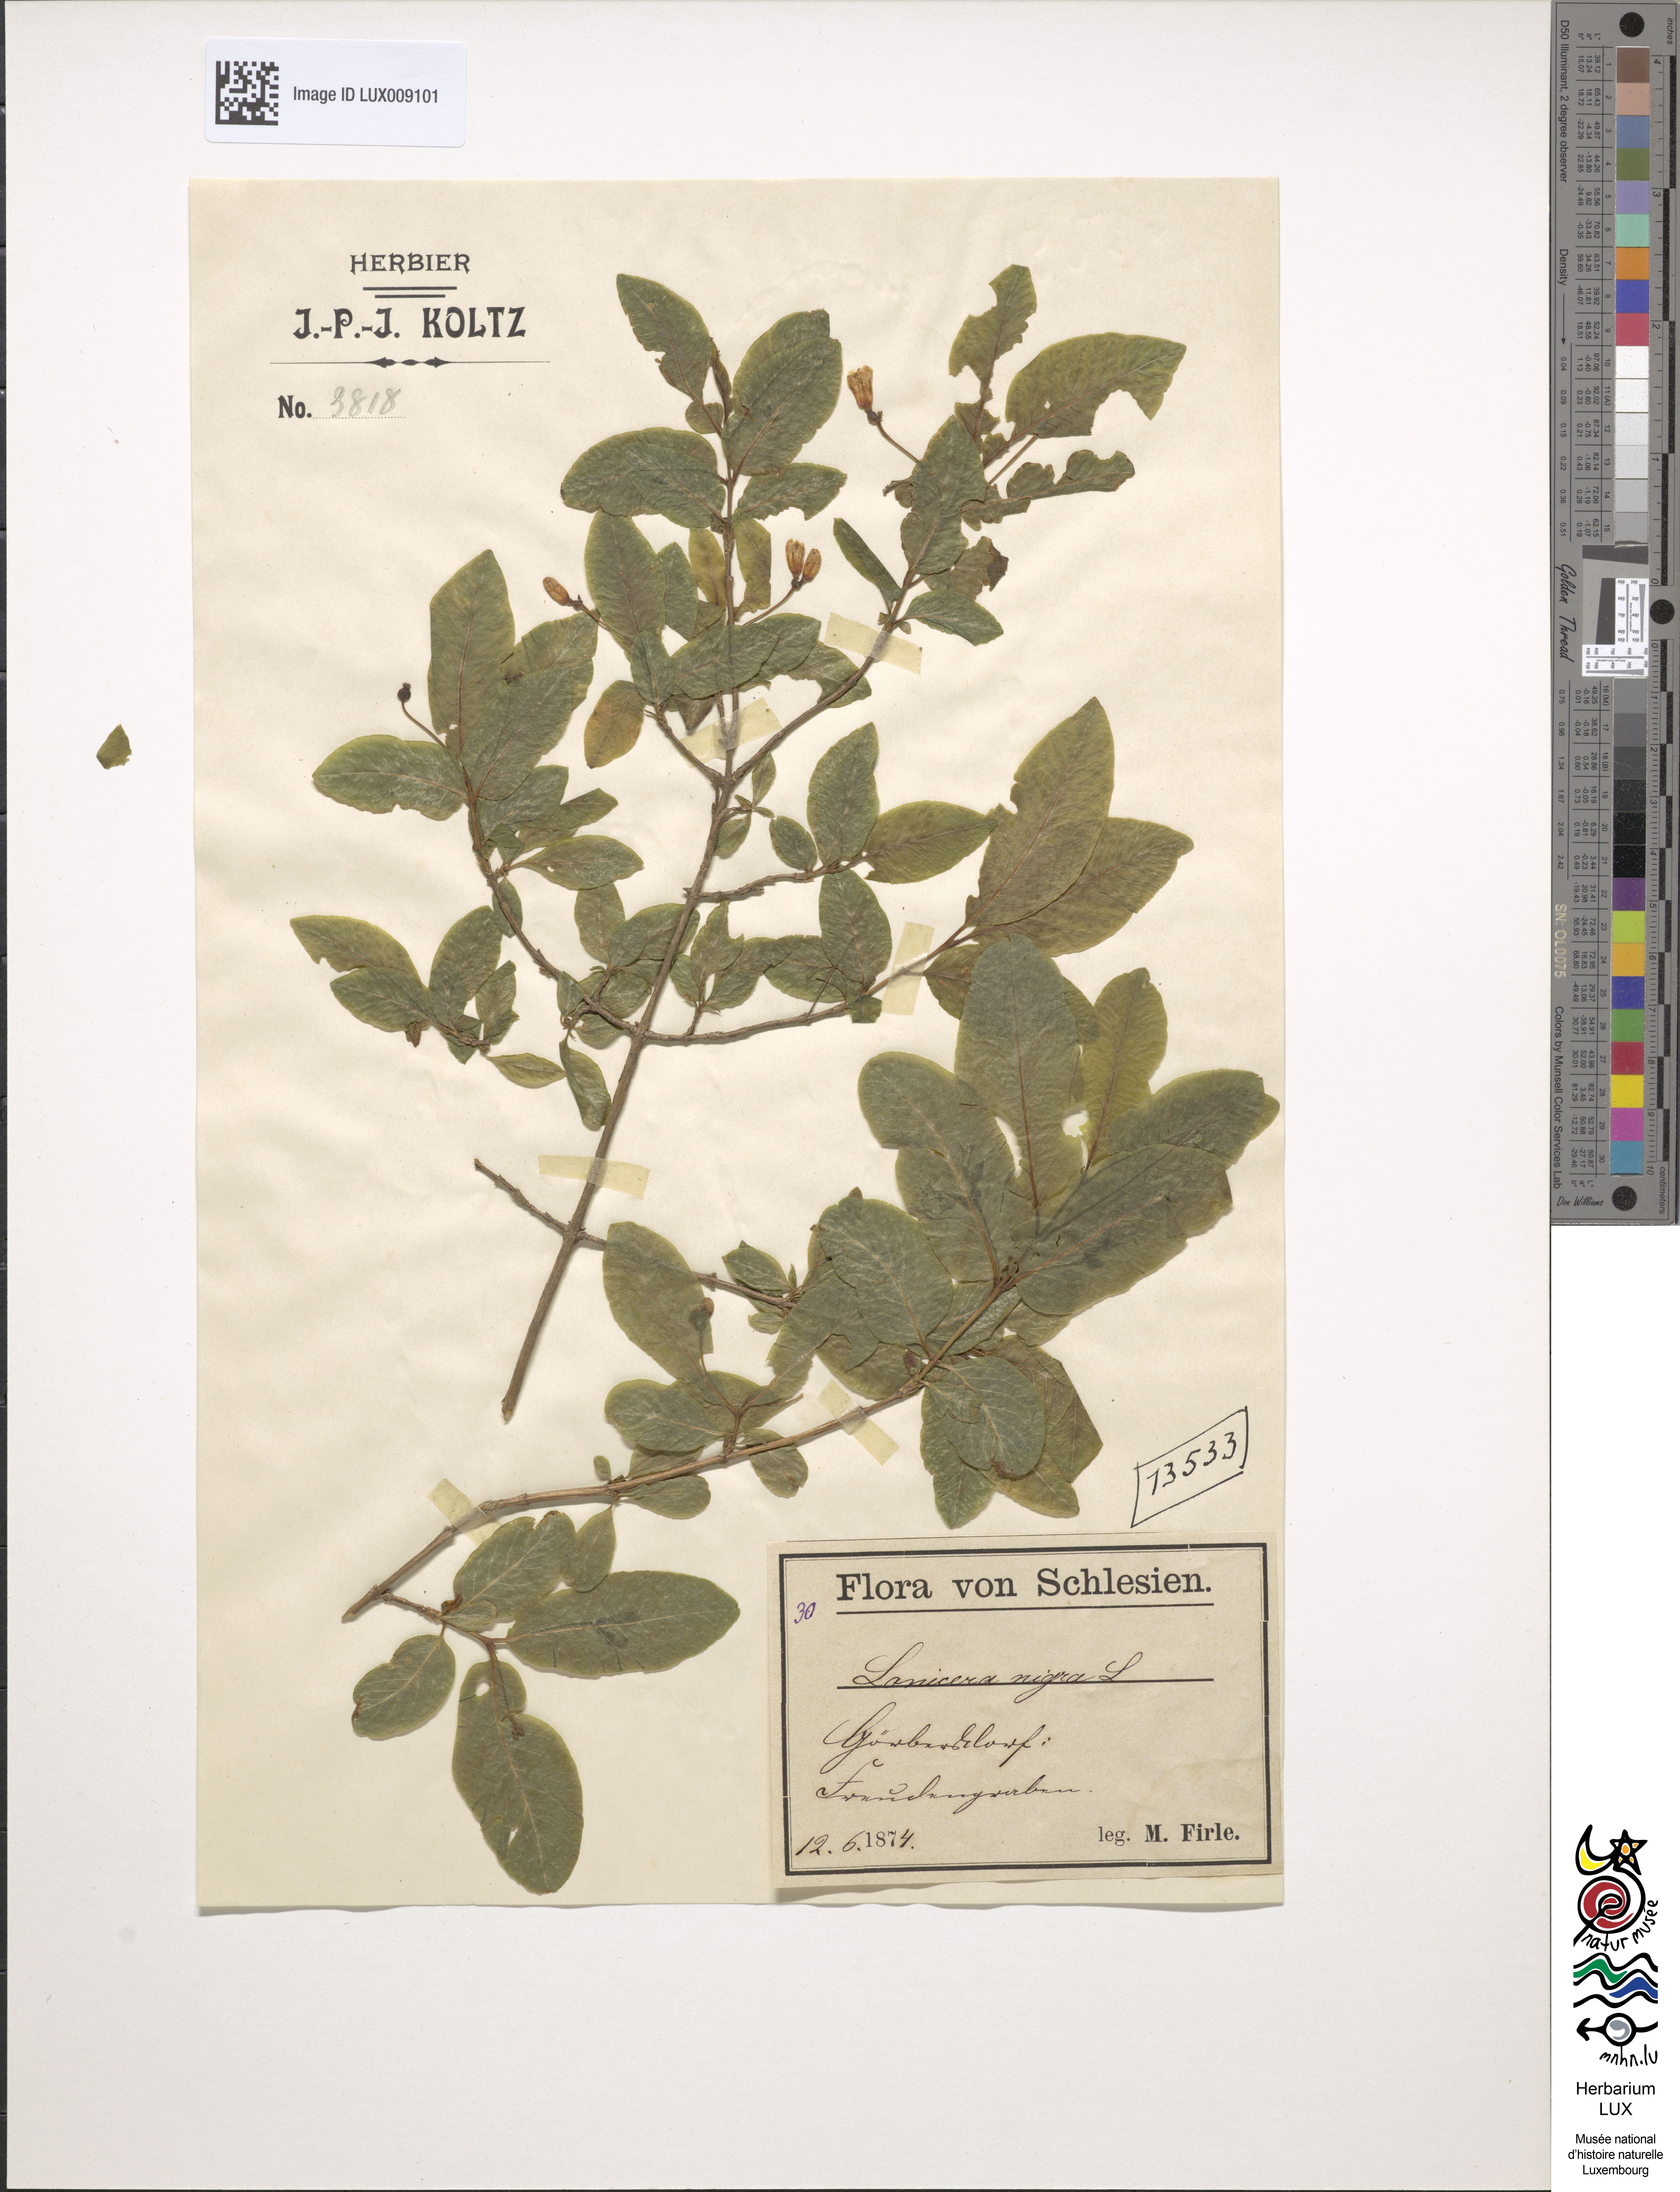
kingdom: Plantae
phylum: Tracheophyta
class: Magnoliopsida
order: Dipsacales
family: Caprifoliaceae
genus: Lonicera
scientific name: Lonicera nigra
